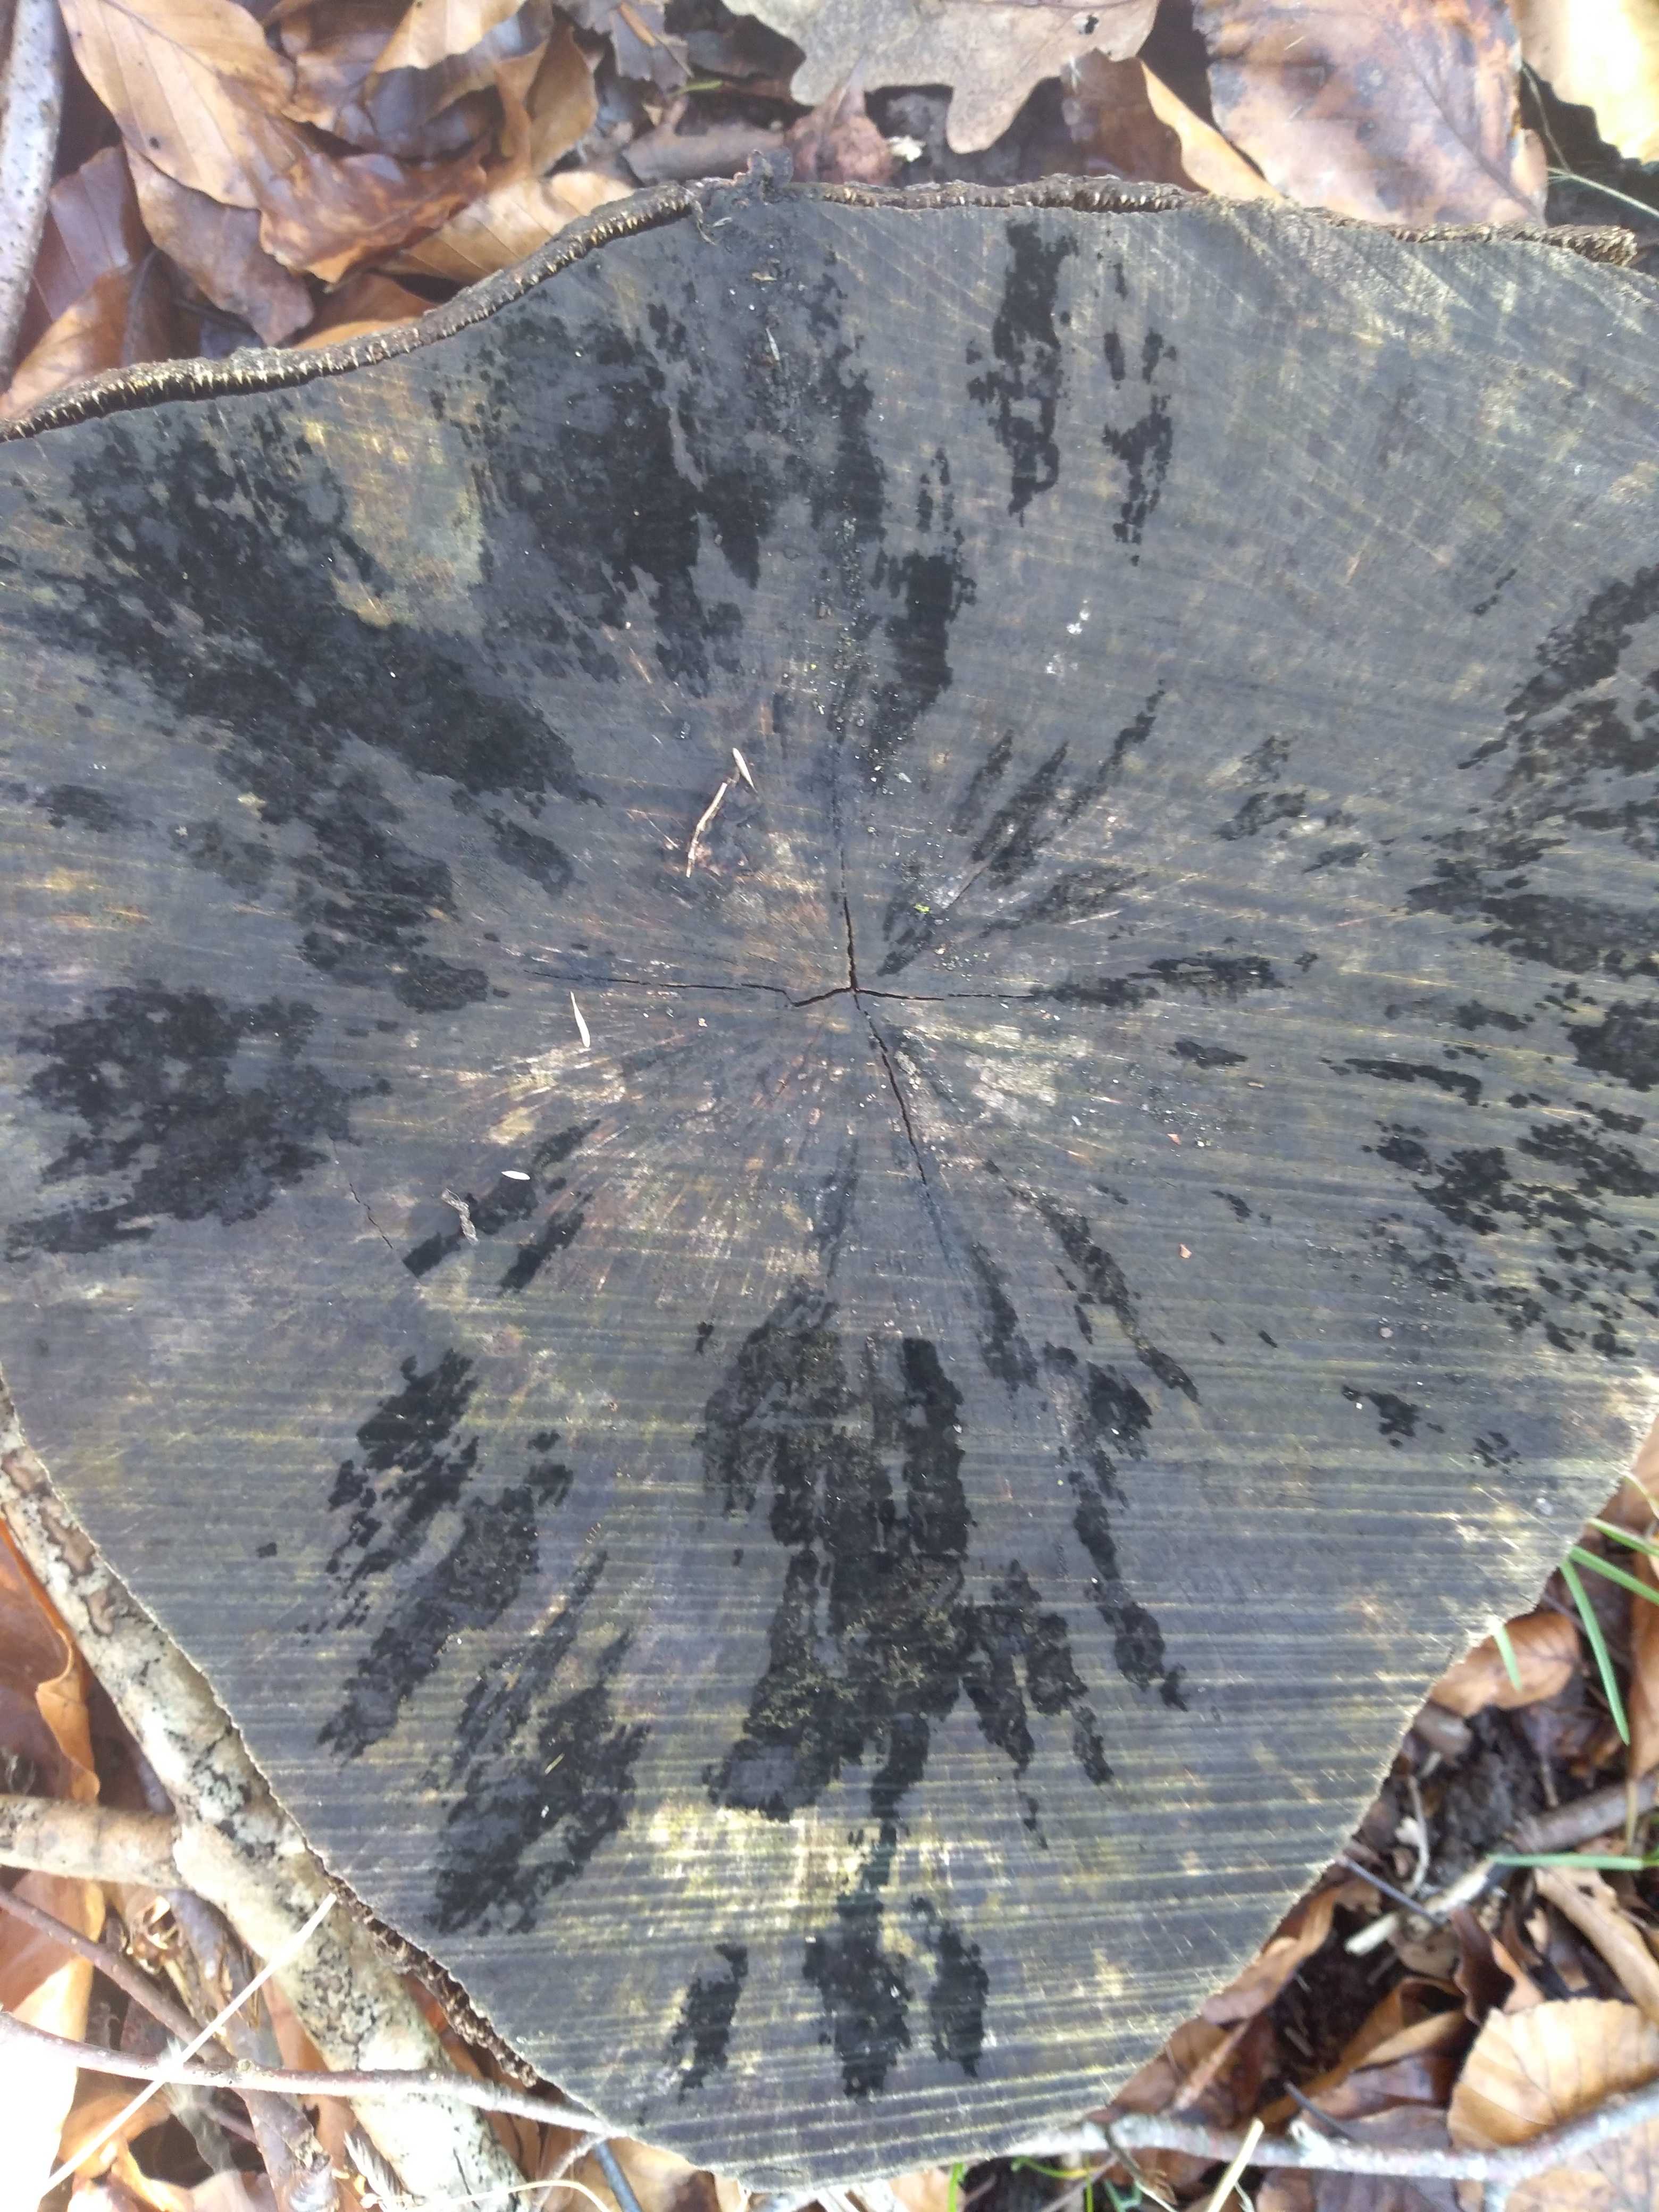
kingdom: Fungi
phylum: Ascomycota
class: Leotiomycetes
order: Helotiales
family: Helotiaceae
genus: Bispora
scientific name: Bispora pallescens
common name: måtte-snitskive
